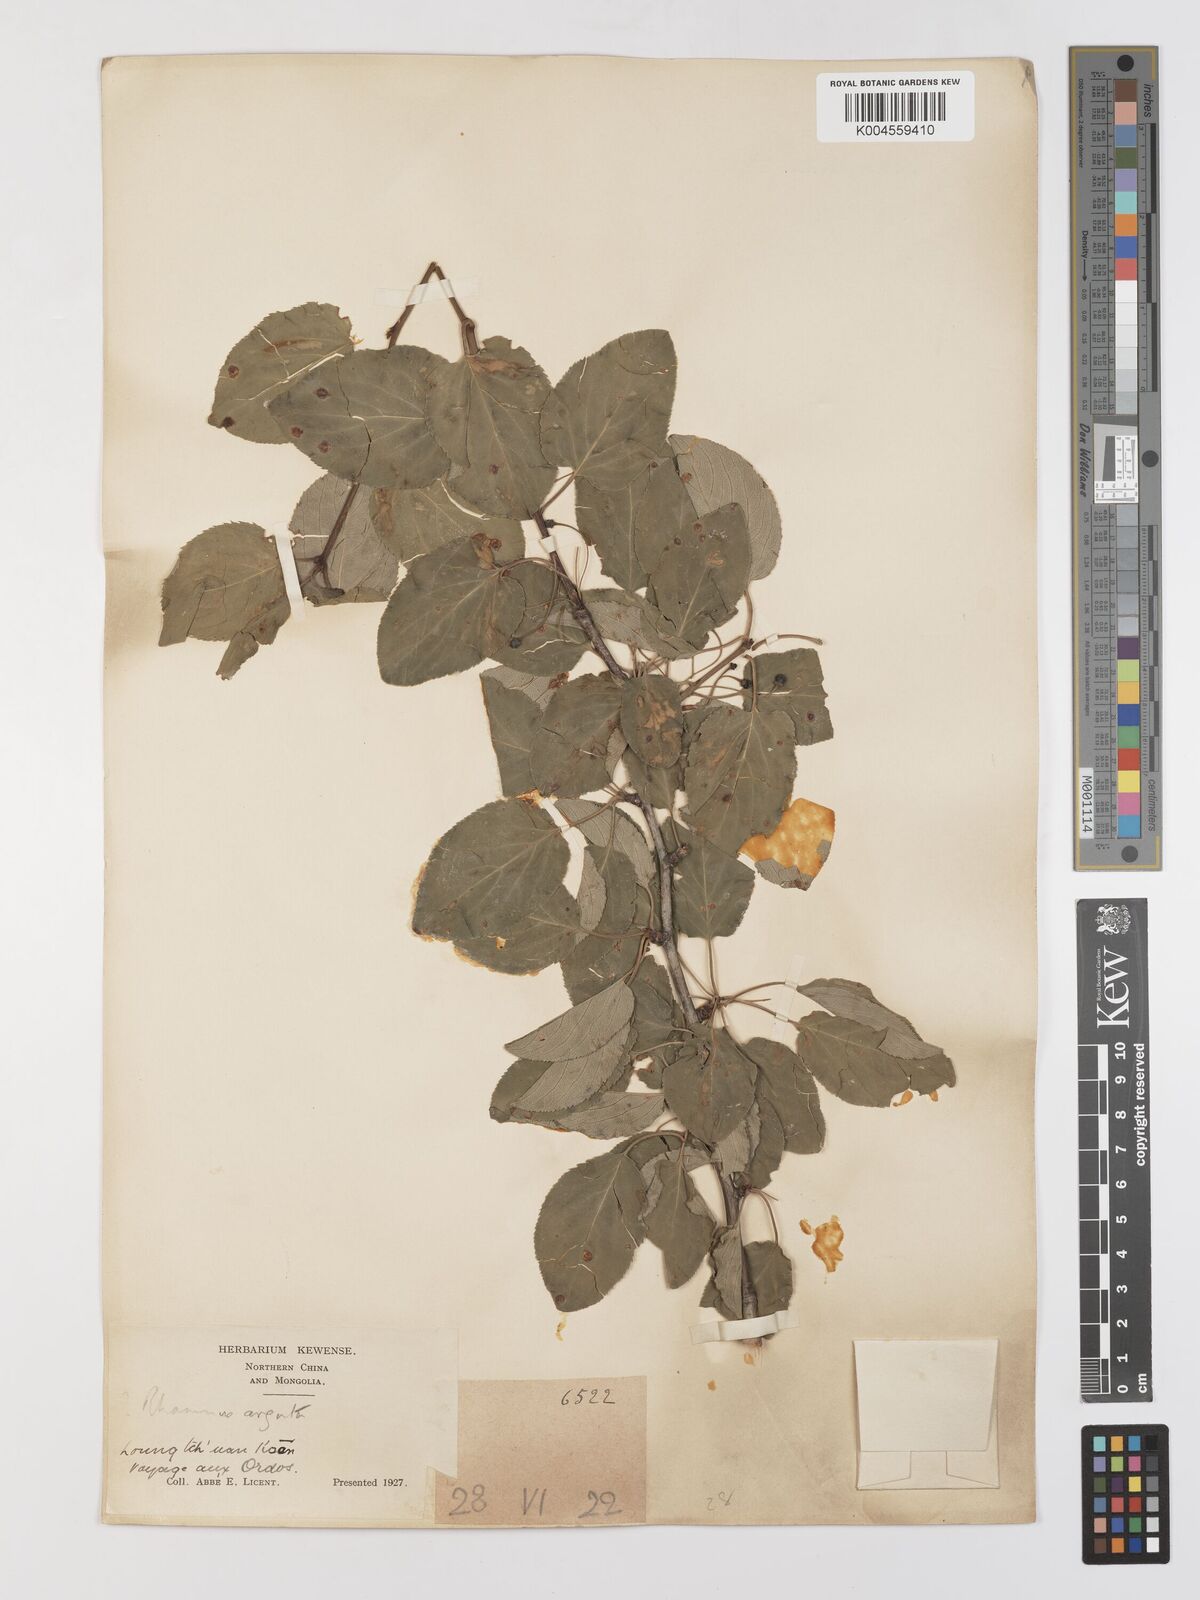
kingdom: Plantae
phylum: Tracheophyta
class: Magnoliopsida
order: Rosales
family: Rhamnaceae
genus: Rhamnus
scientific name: Rhamnus arguta
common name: Sharp-tooth buckthorn
